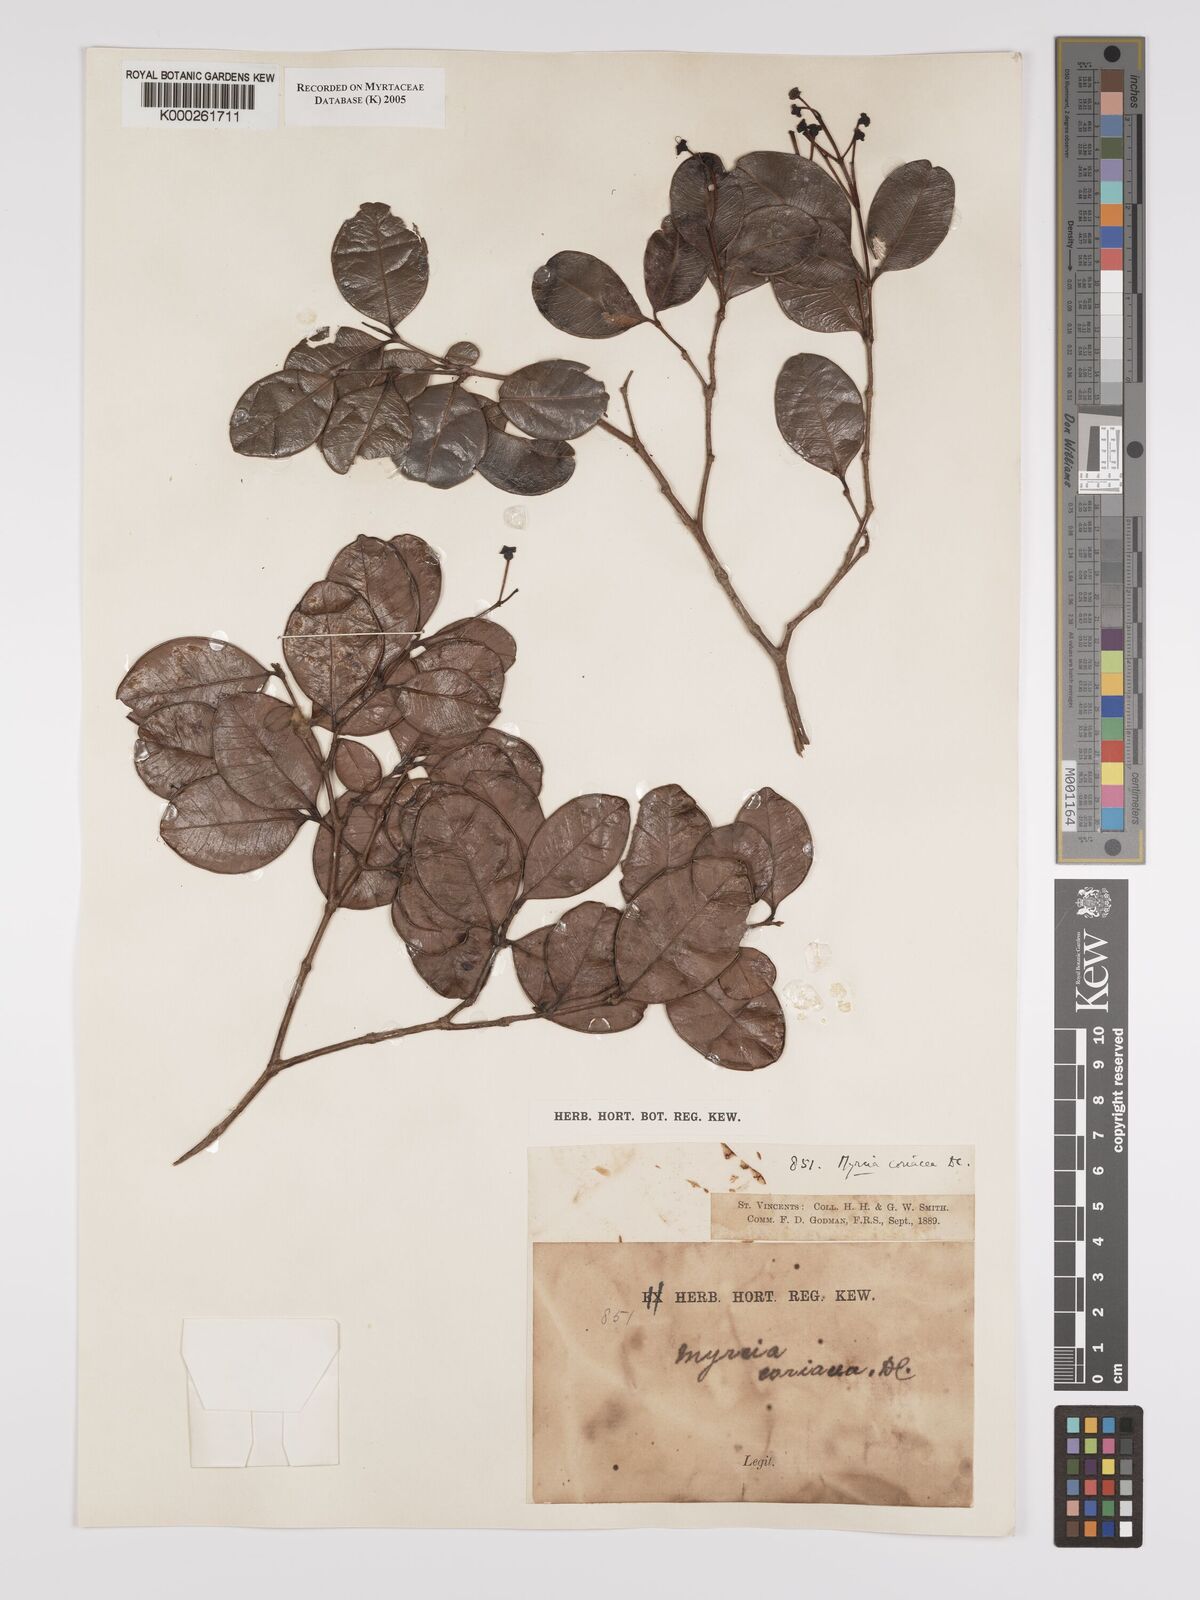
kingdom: Plantae
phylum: Tracheophyta
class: Magnoliopsida
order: Myrtales
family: Myrtaceae
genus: Myrcia
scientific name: Myrcia guianensis
